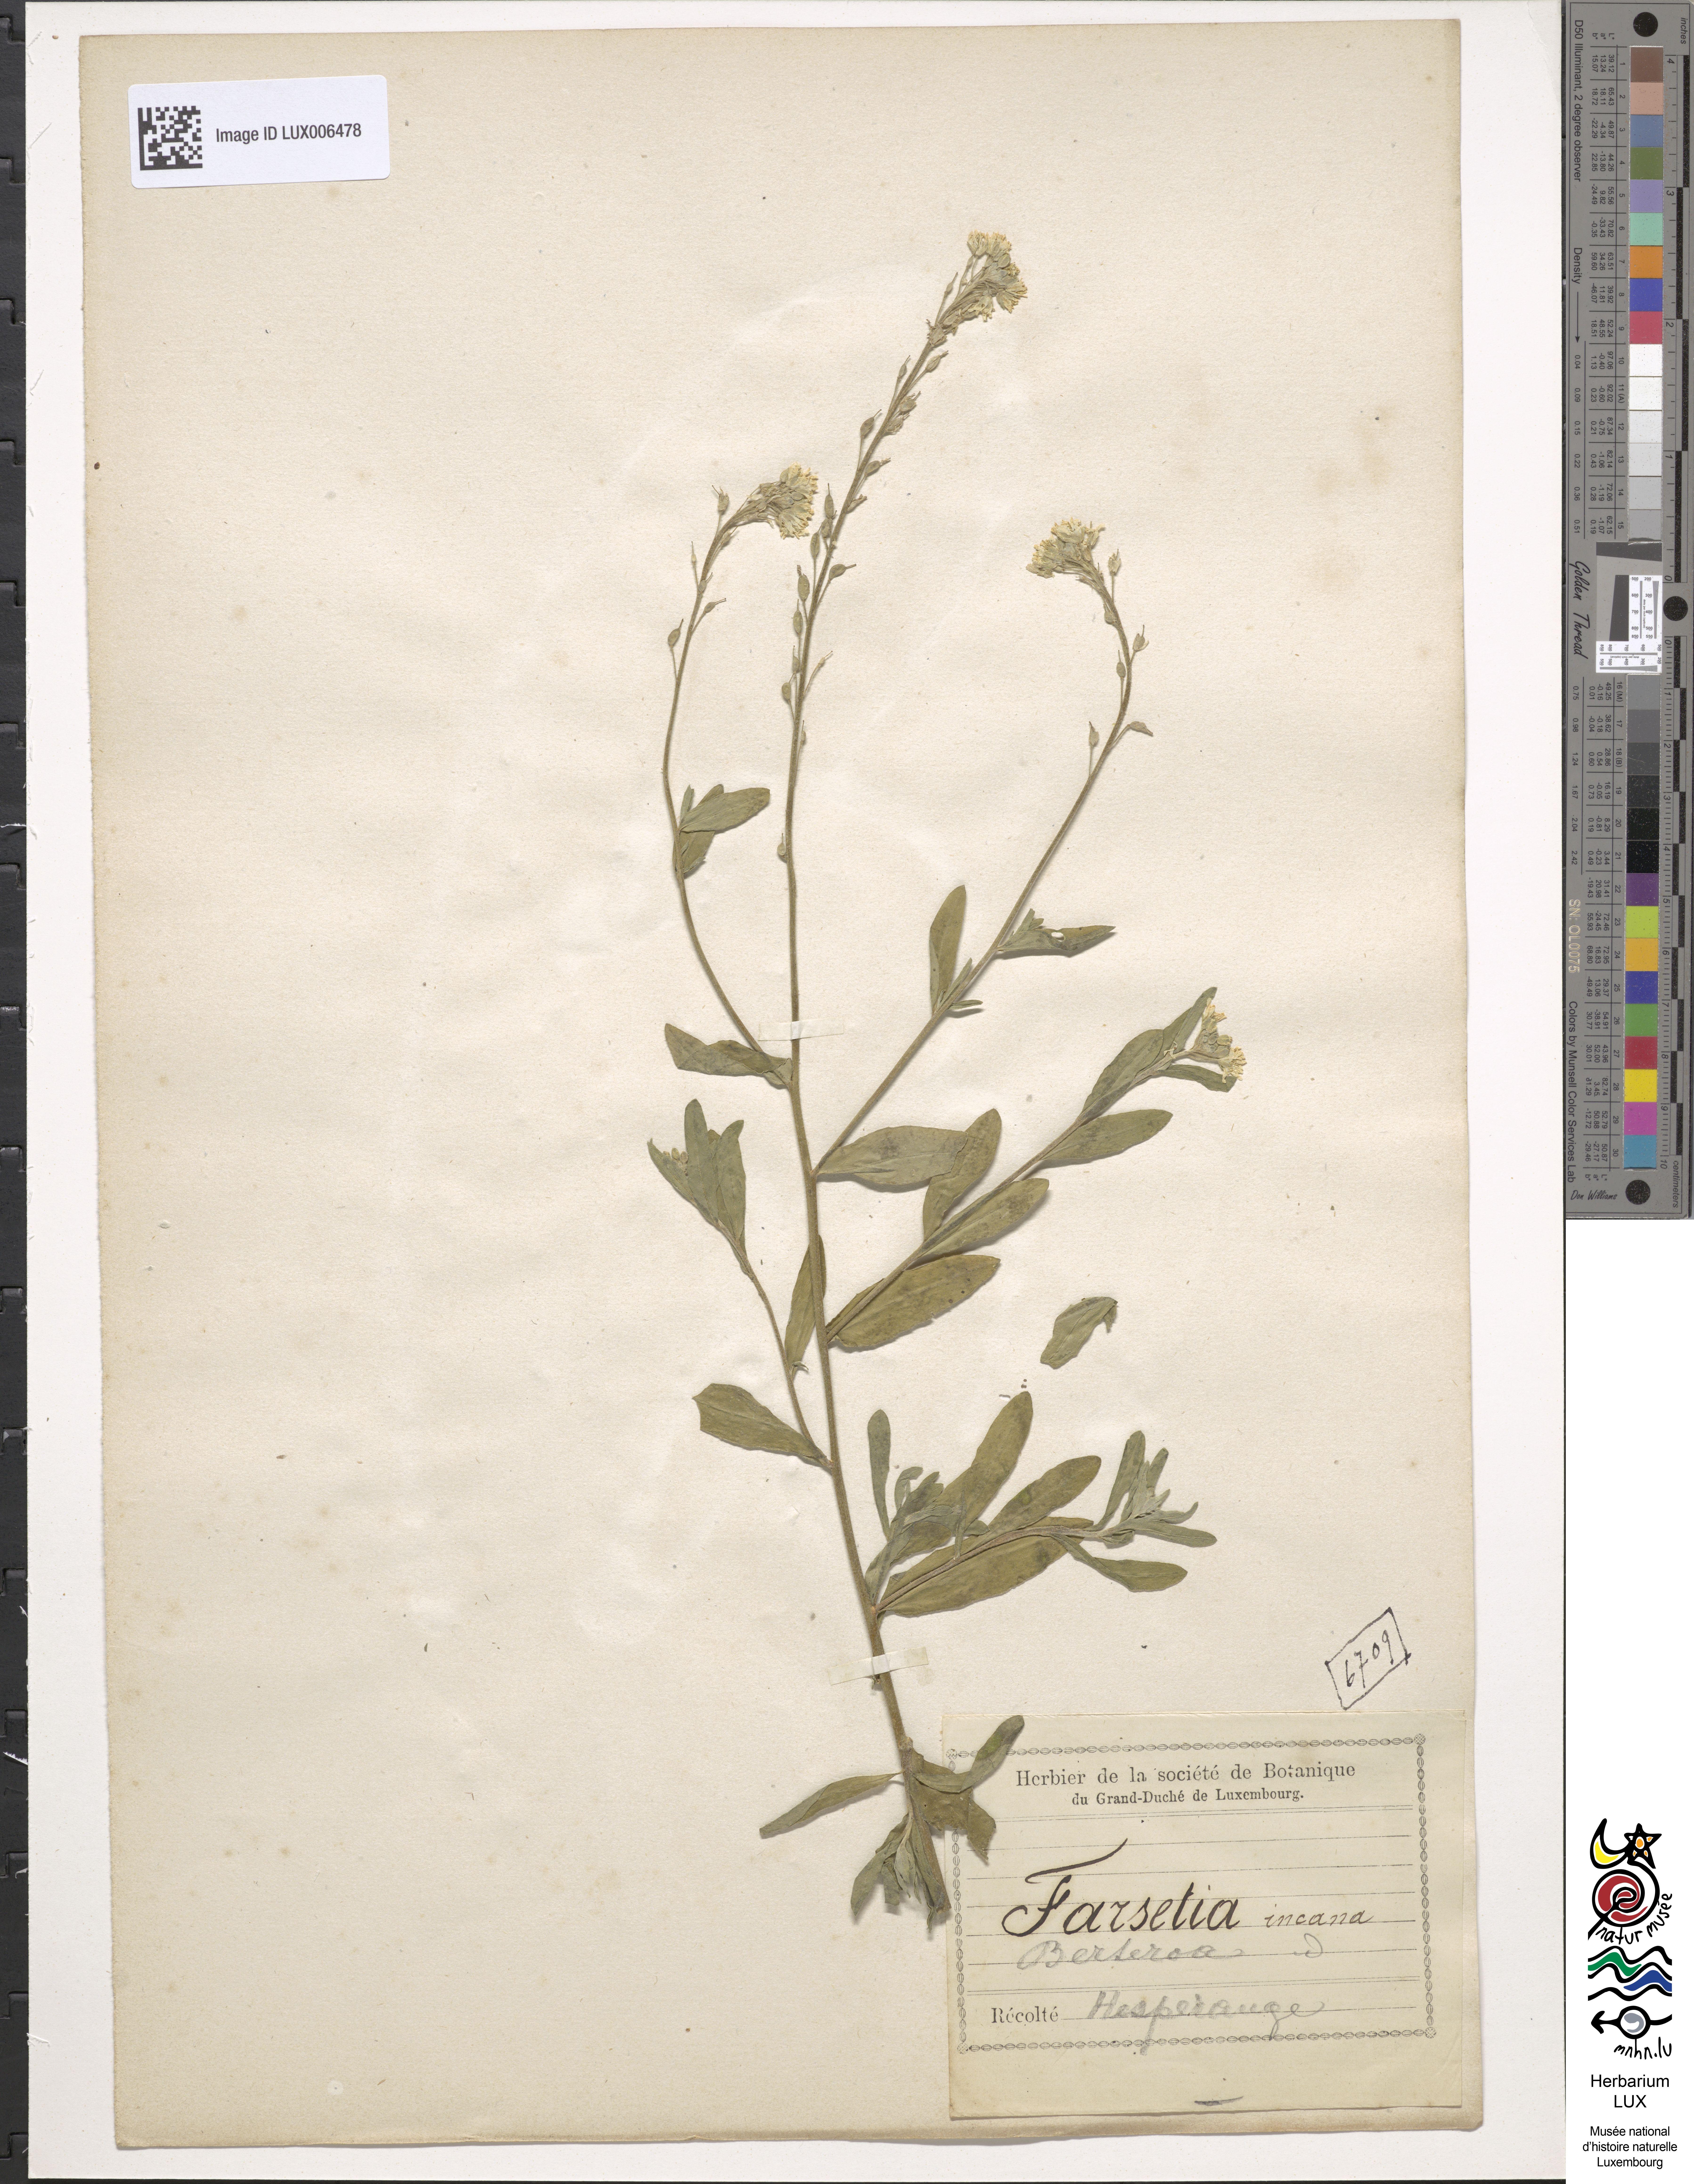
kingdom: Plantae
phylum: Tracheophyta
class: Magnoliopsida
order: Brassicales
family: Brassicaceae
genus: Berteroa
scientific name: Berteroa incana
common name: Hoary alison
